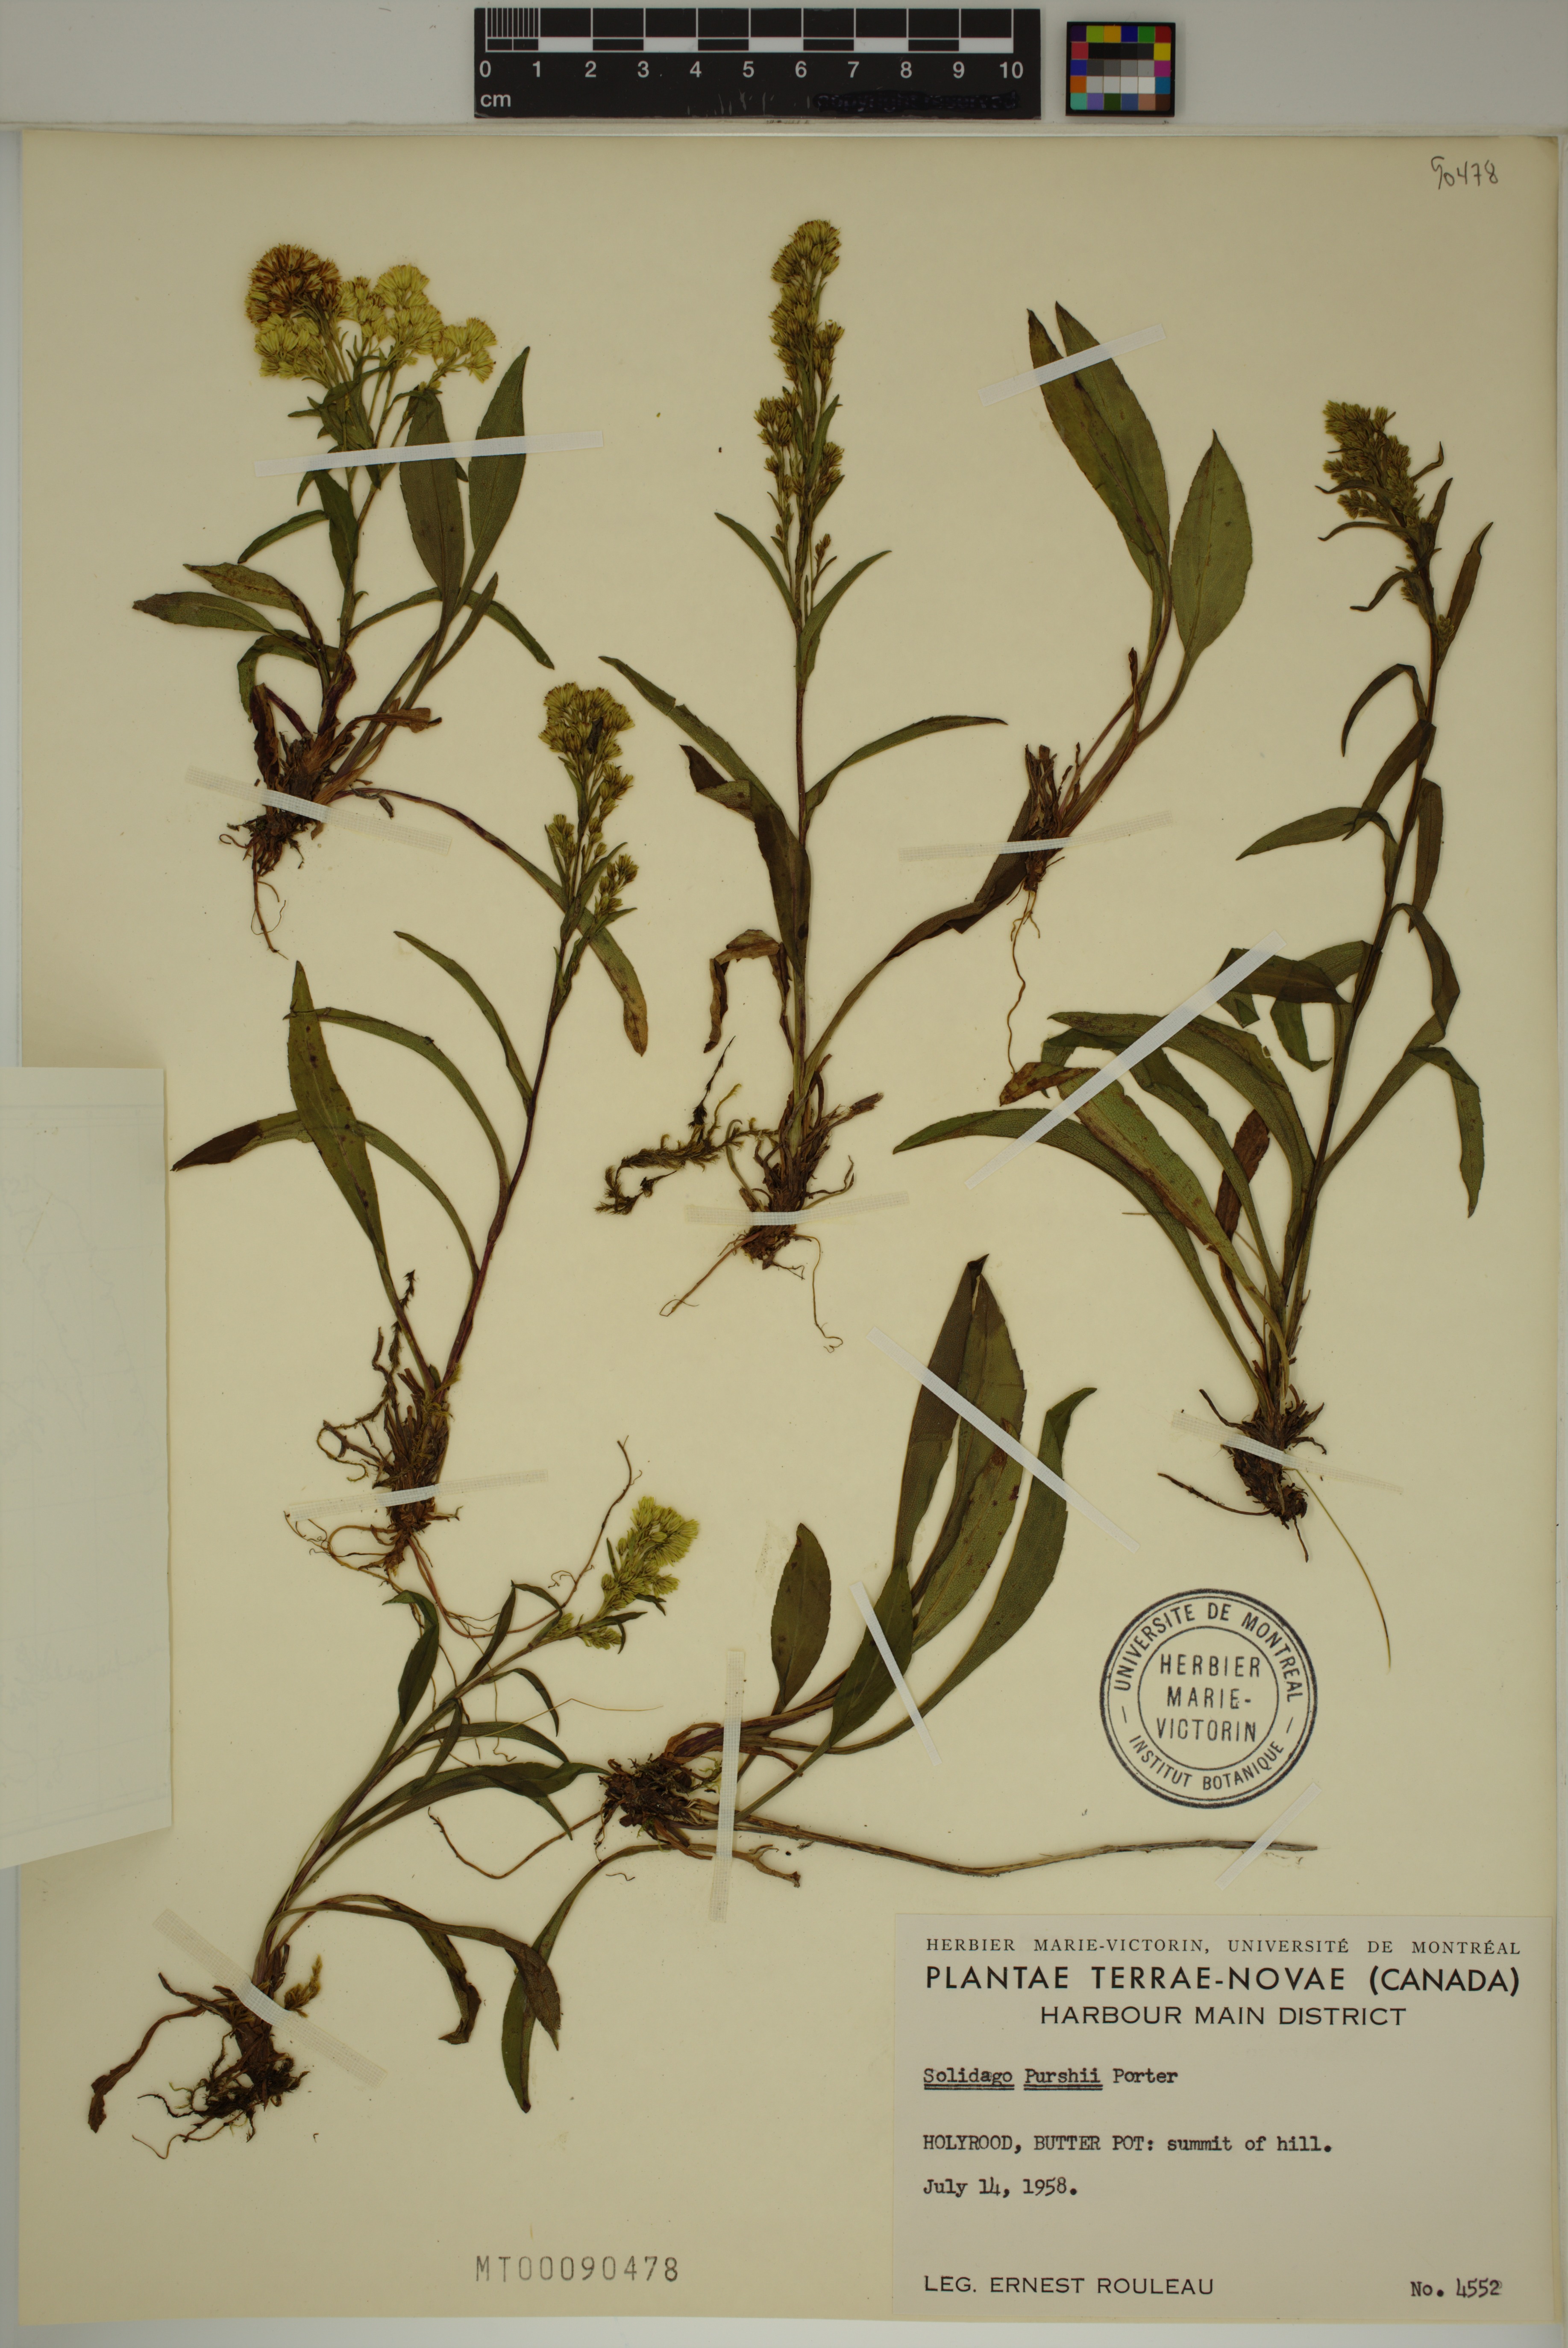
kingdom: Plantae
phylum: Tracheophyta
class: Magnoliopsida
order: Asterales
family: Asteraceae
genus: Solidago
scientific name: Solidago uliginosa
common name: Bog goldenrod
